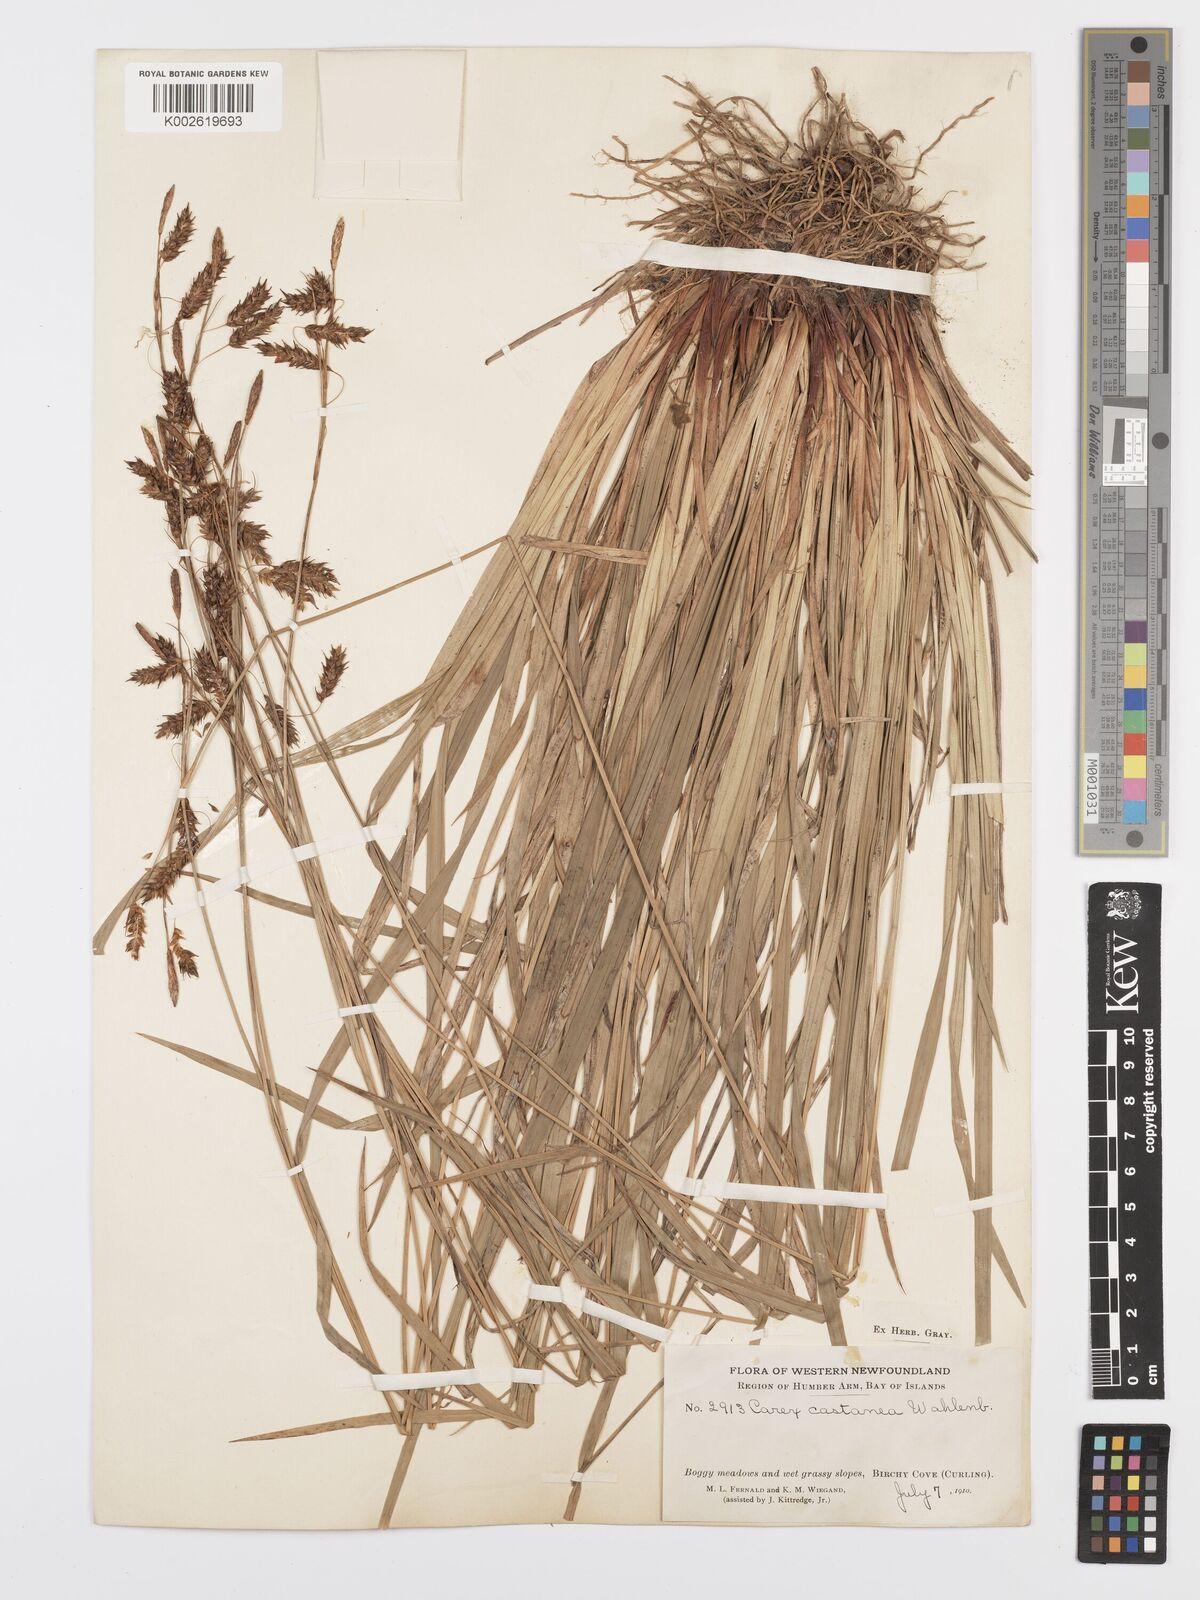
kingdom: Plantae
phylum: Tracheophyta
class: Liliopsida
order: Poales
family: Cyperaceae
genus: Carex
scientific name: Carex castanea
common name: Chestnut sedge
